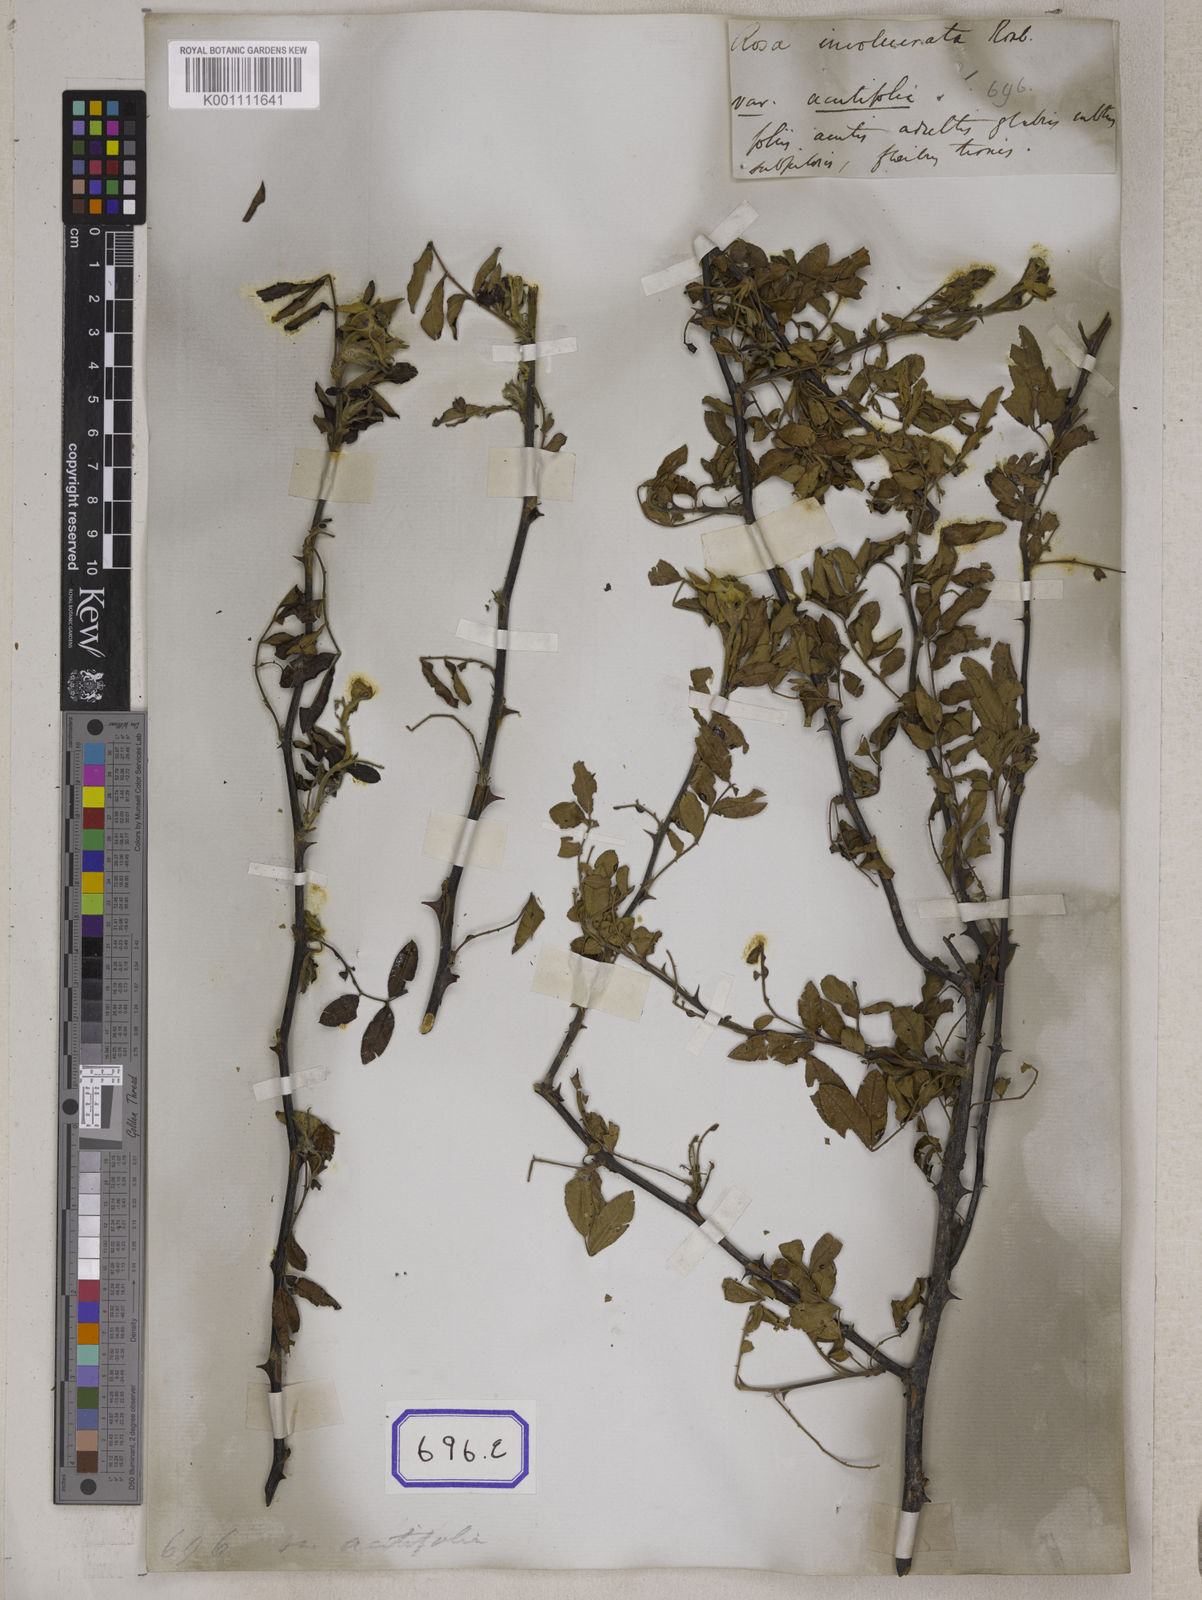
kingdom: Plantae
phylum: Tracheophyta
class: Magnoliopsida
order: Rosales
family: Rosaceae
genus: Rosa
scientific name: Rosa
